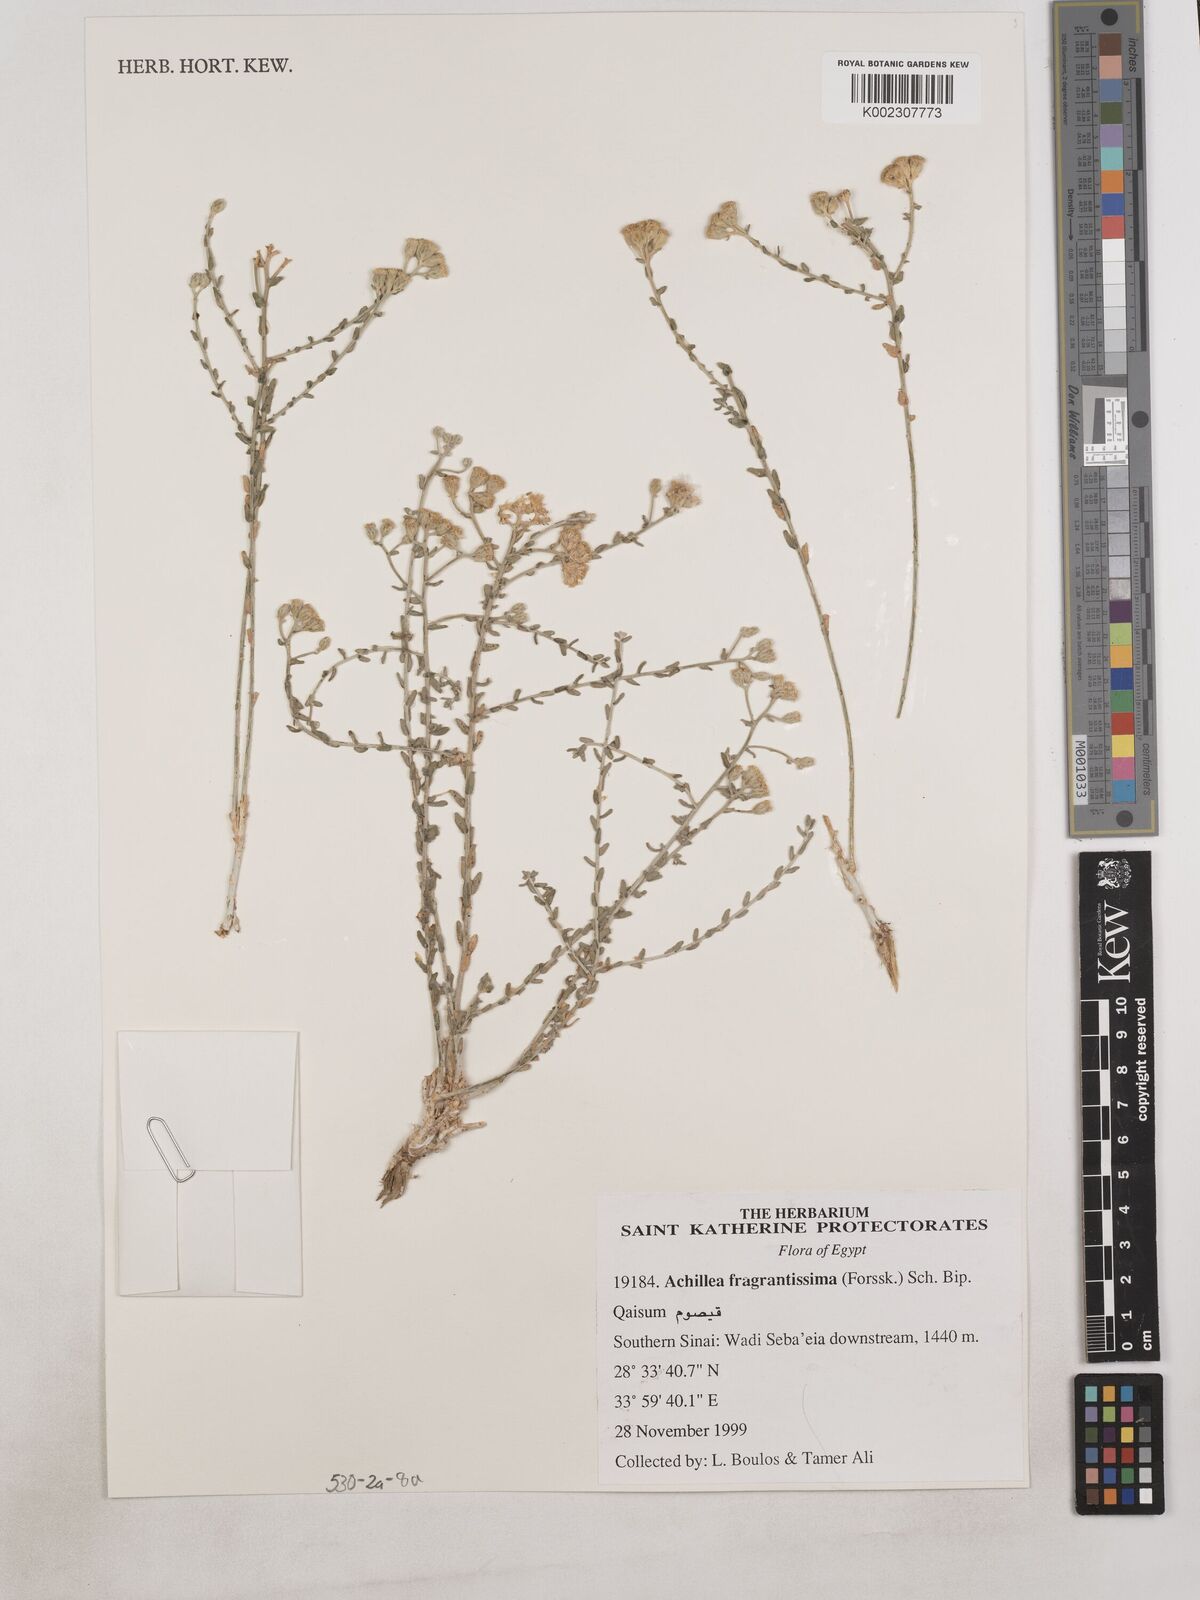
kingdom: Plantae
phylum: Tracheophyta
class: Magnoliopsida
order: Asterales
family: Asteraceae
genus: Achillea
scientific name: Achillea fragrantissima
